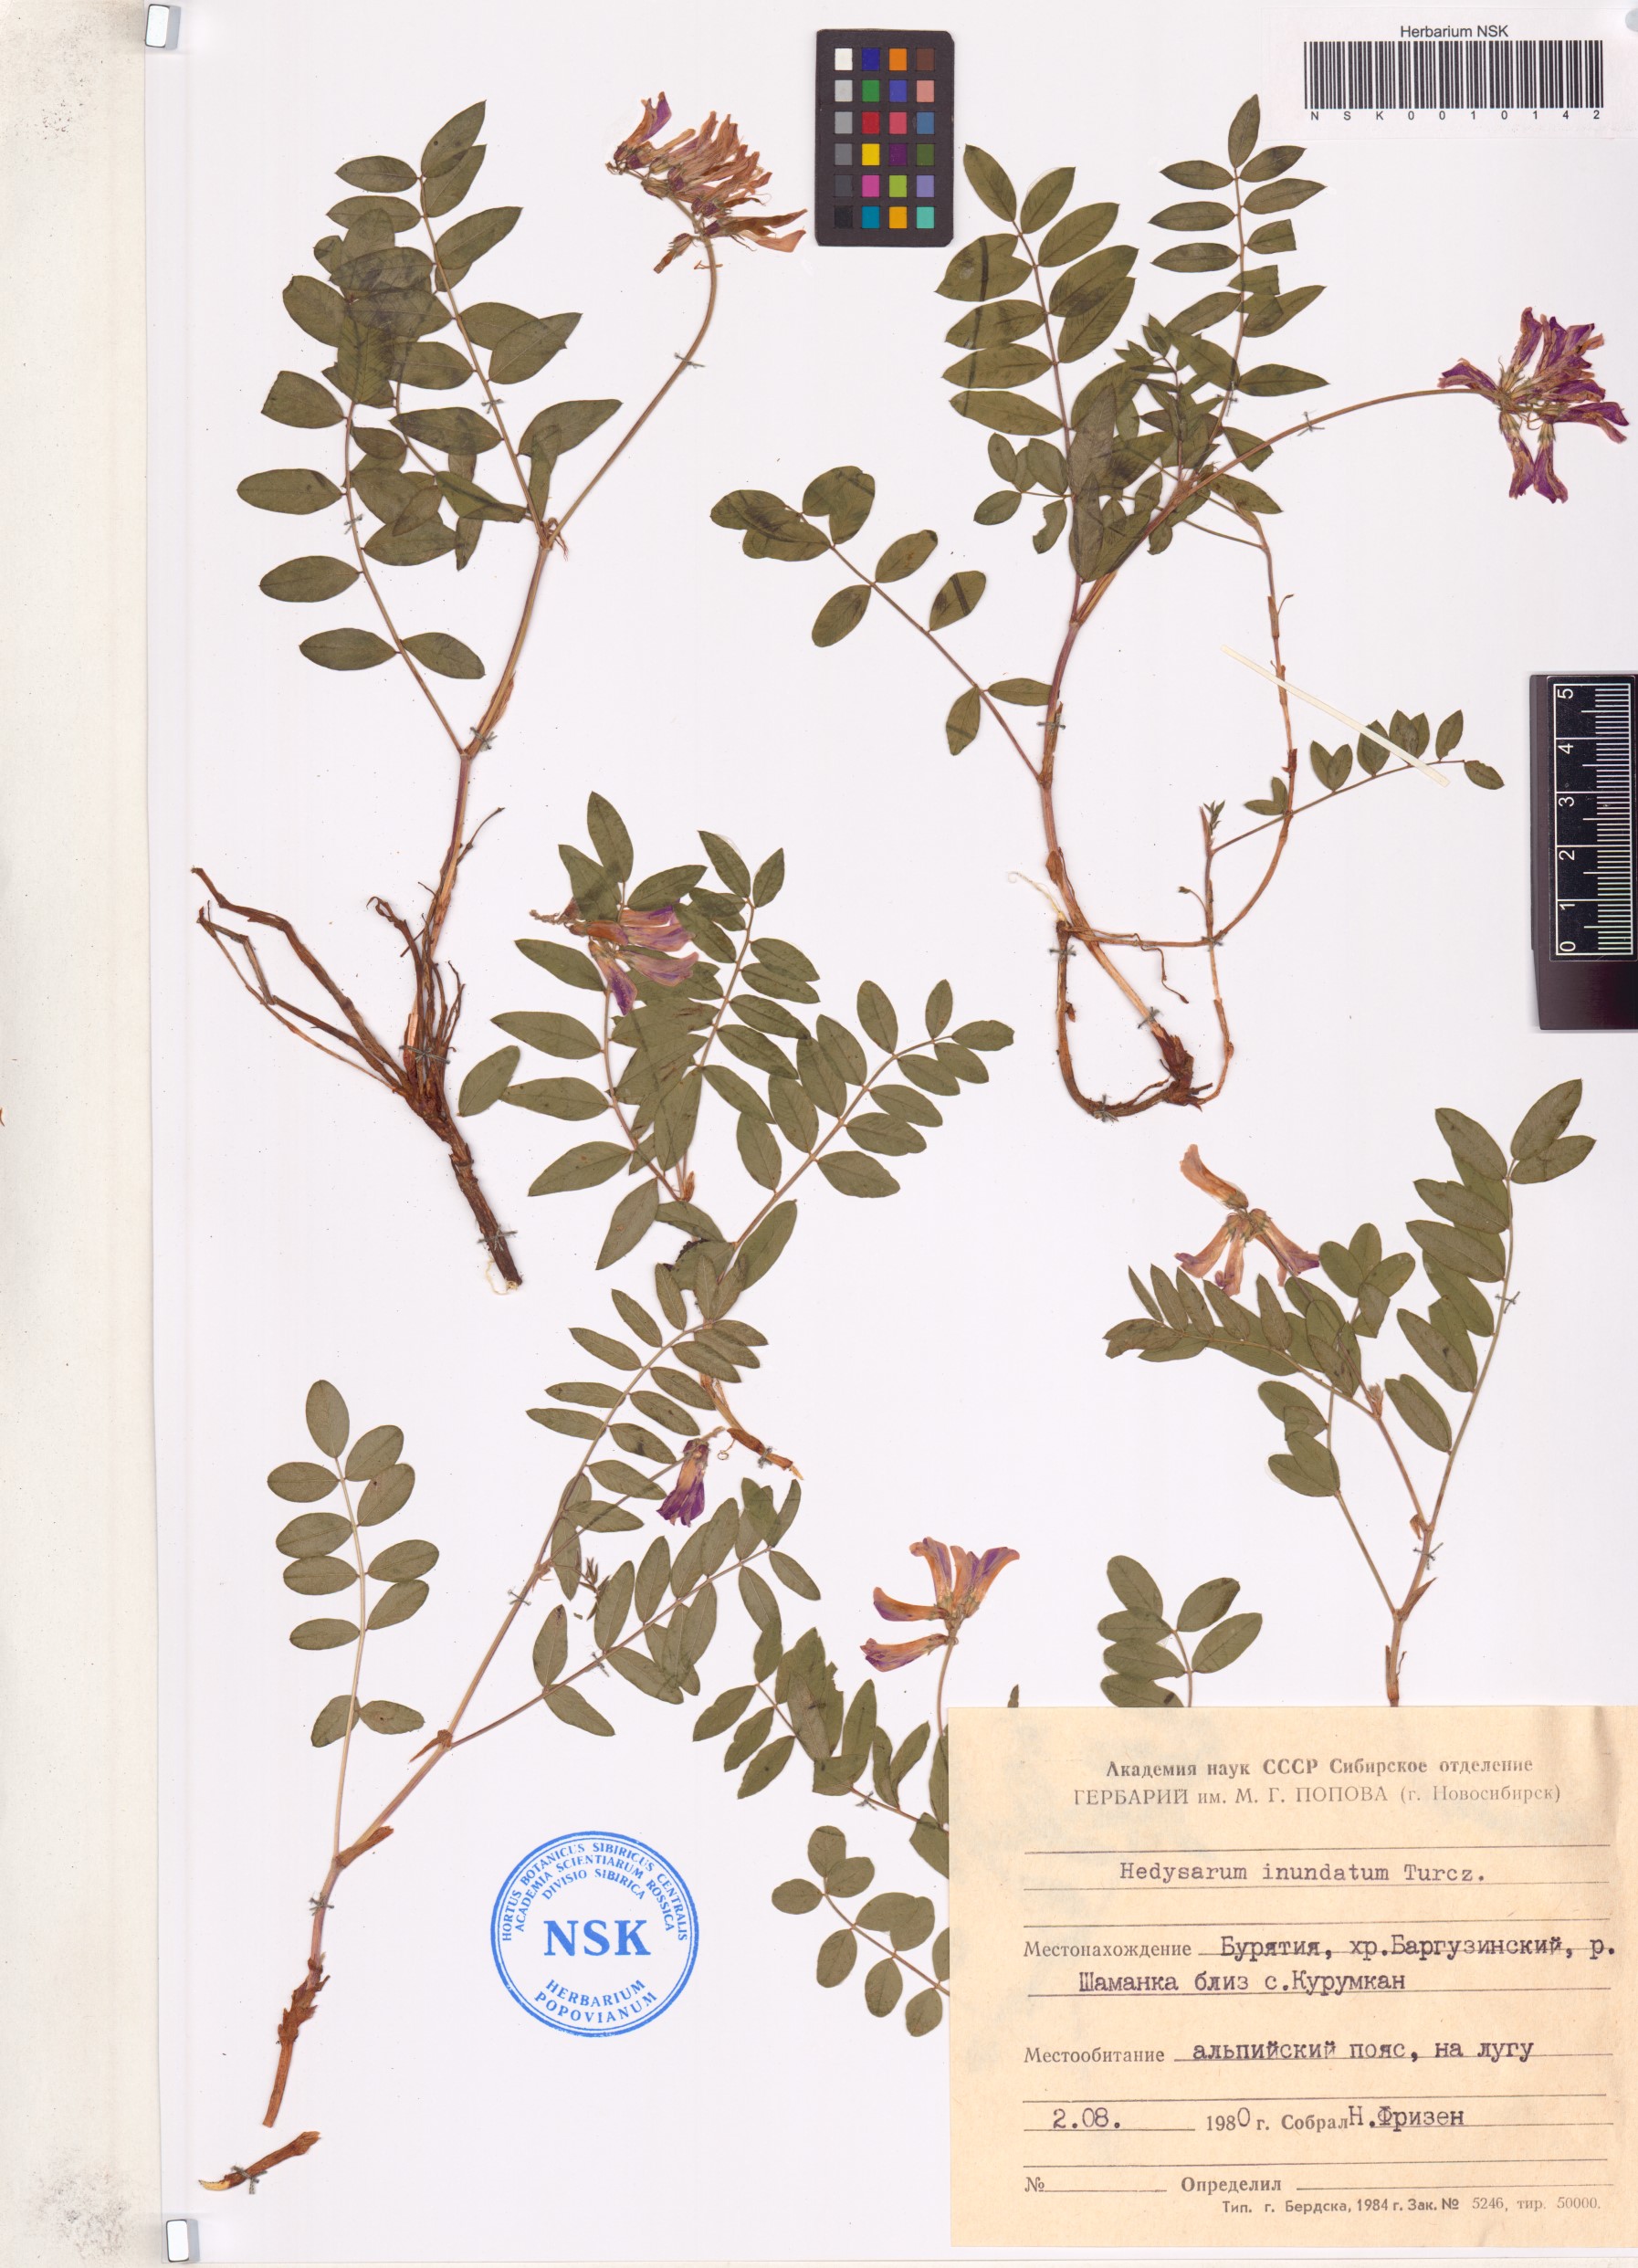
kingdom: Plantae
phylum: Tracheophyta
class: Magnoliopsida
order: Fabales
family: Fabaceae
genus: Hedysarum
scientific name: Hedysarum inundatum
